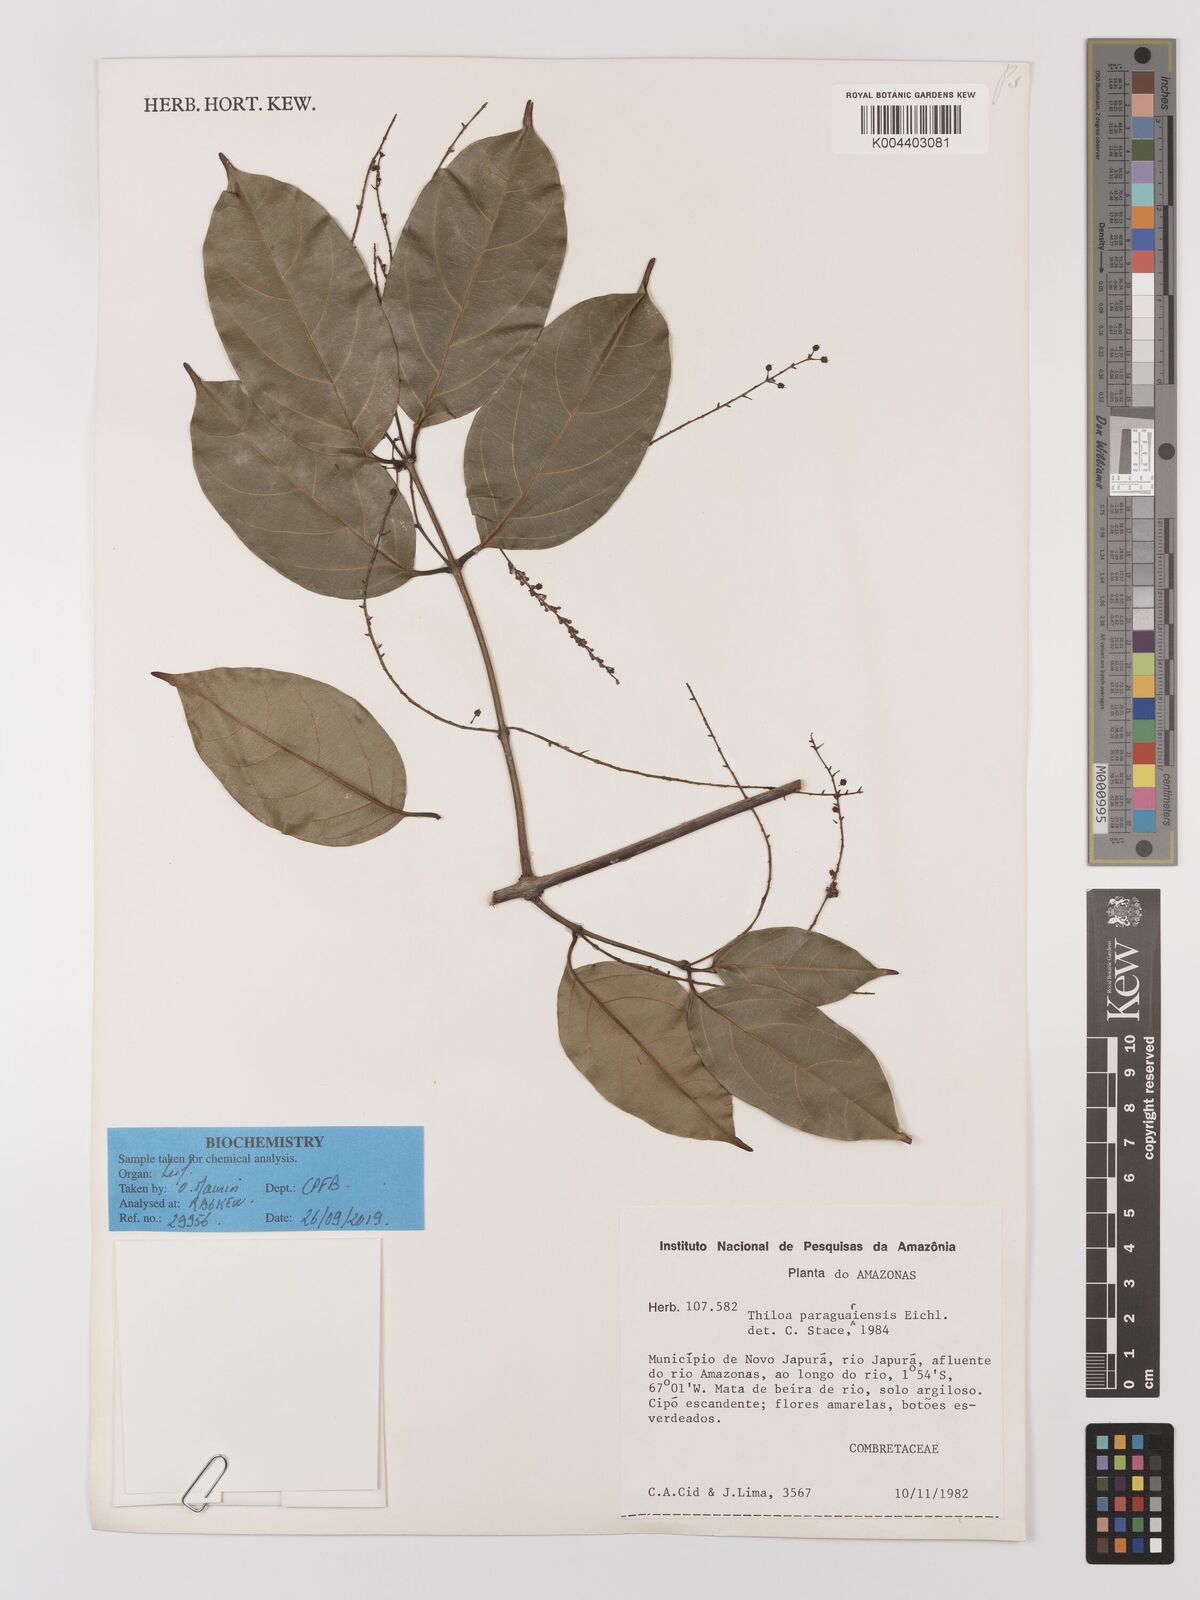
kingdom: Plantae
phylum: Tracheophyta
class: Magnoliopsida
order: Myrtales
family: Combretaceae
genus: Combretum
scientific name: Combretum paraguariense
